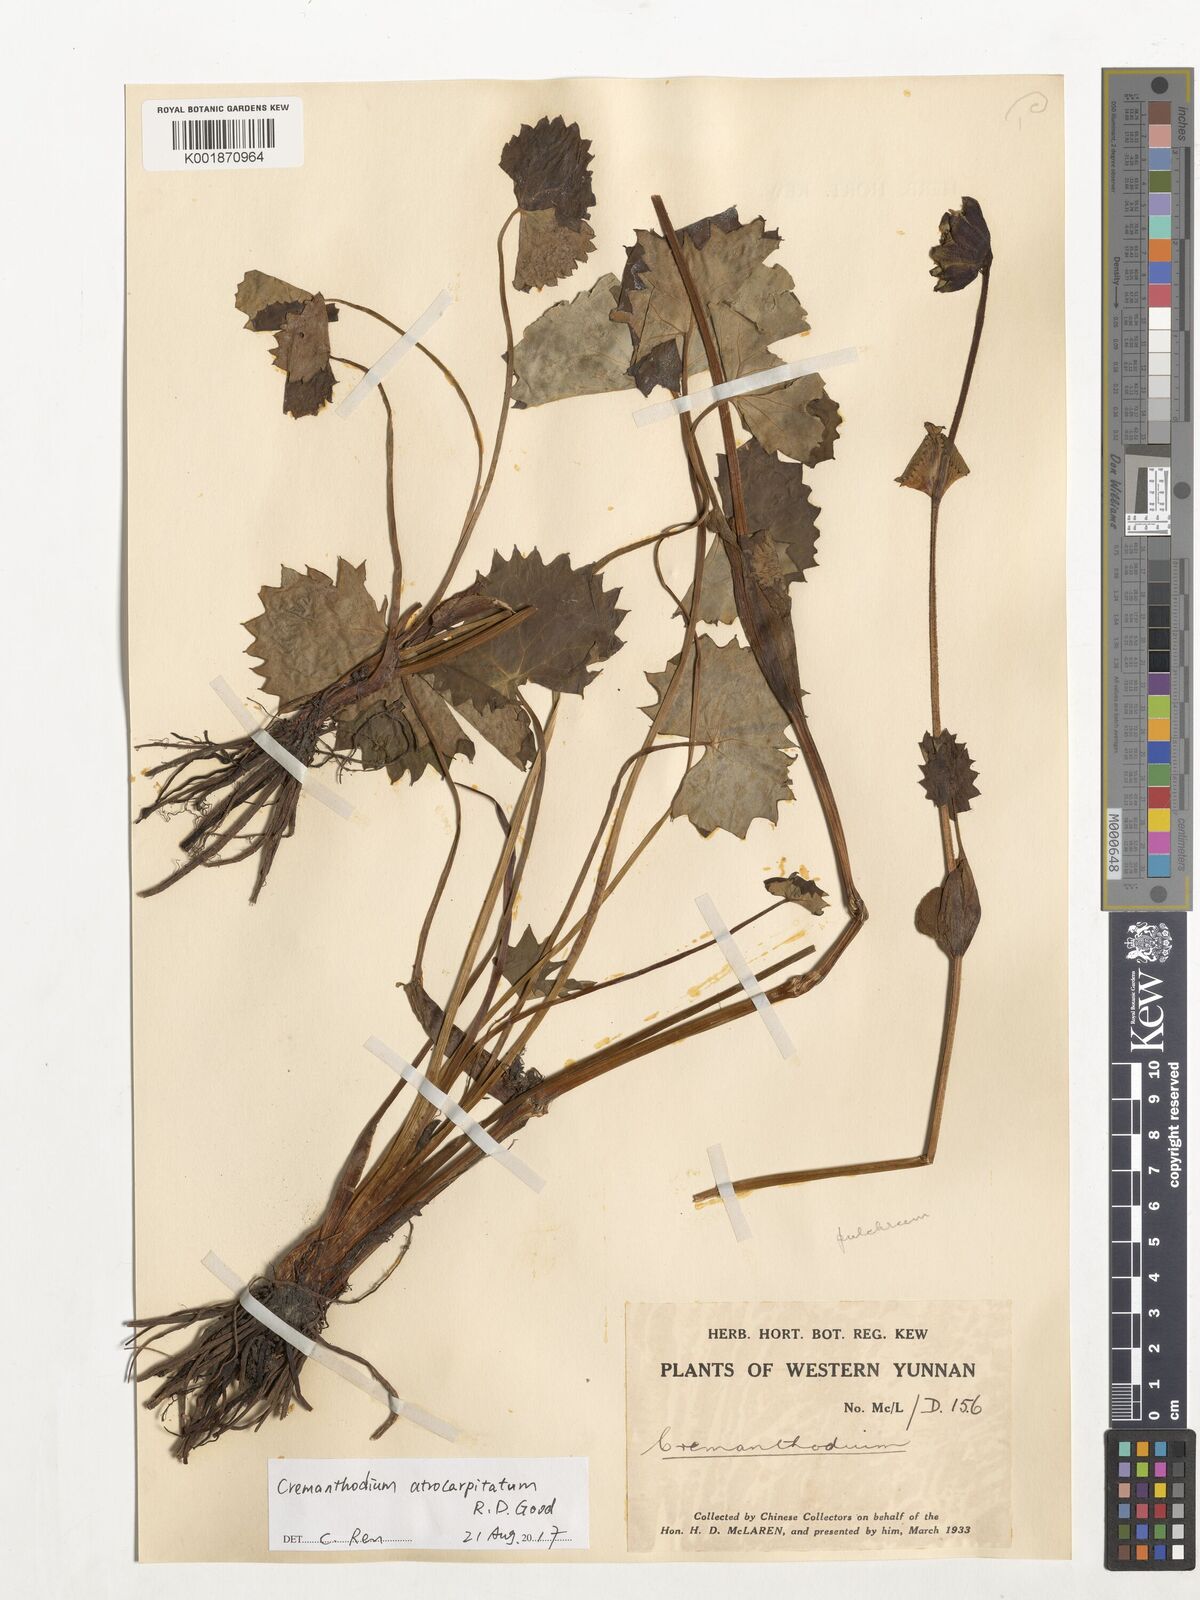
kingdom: Plantae
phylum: Tracheophyta
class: Magnoliopsida
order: Asterales
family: Asteraceae
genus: Cremanthodium
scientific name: Cremanthodium atrocapitatum
